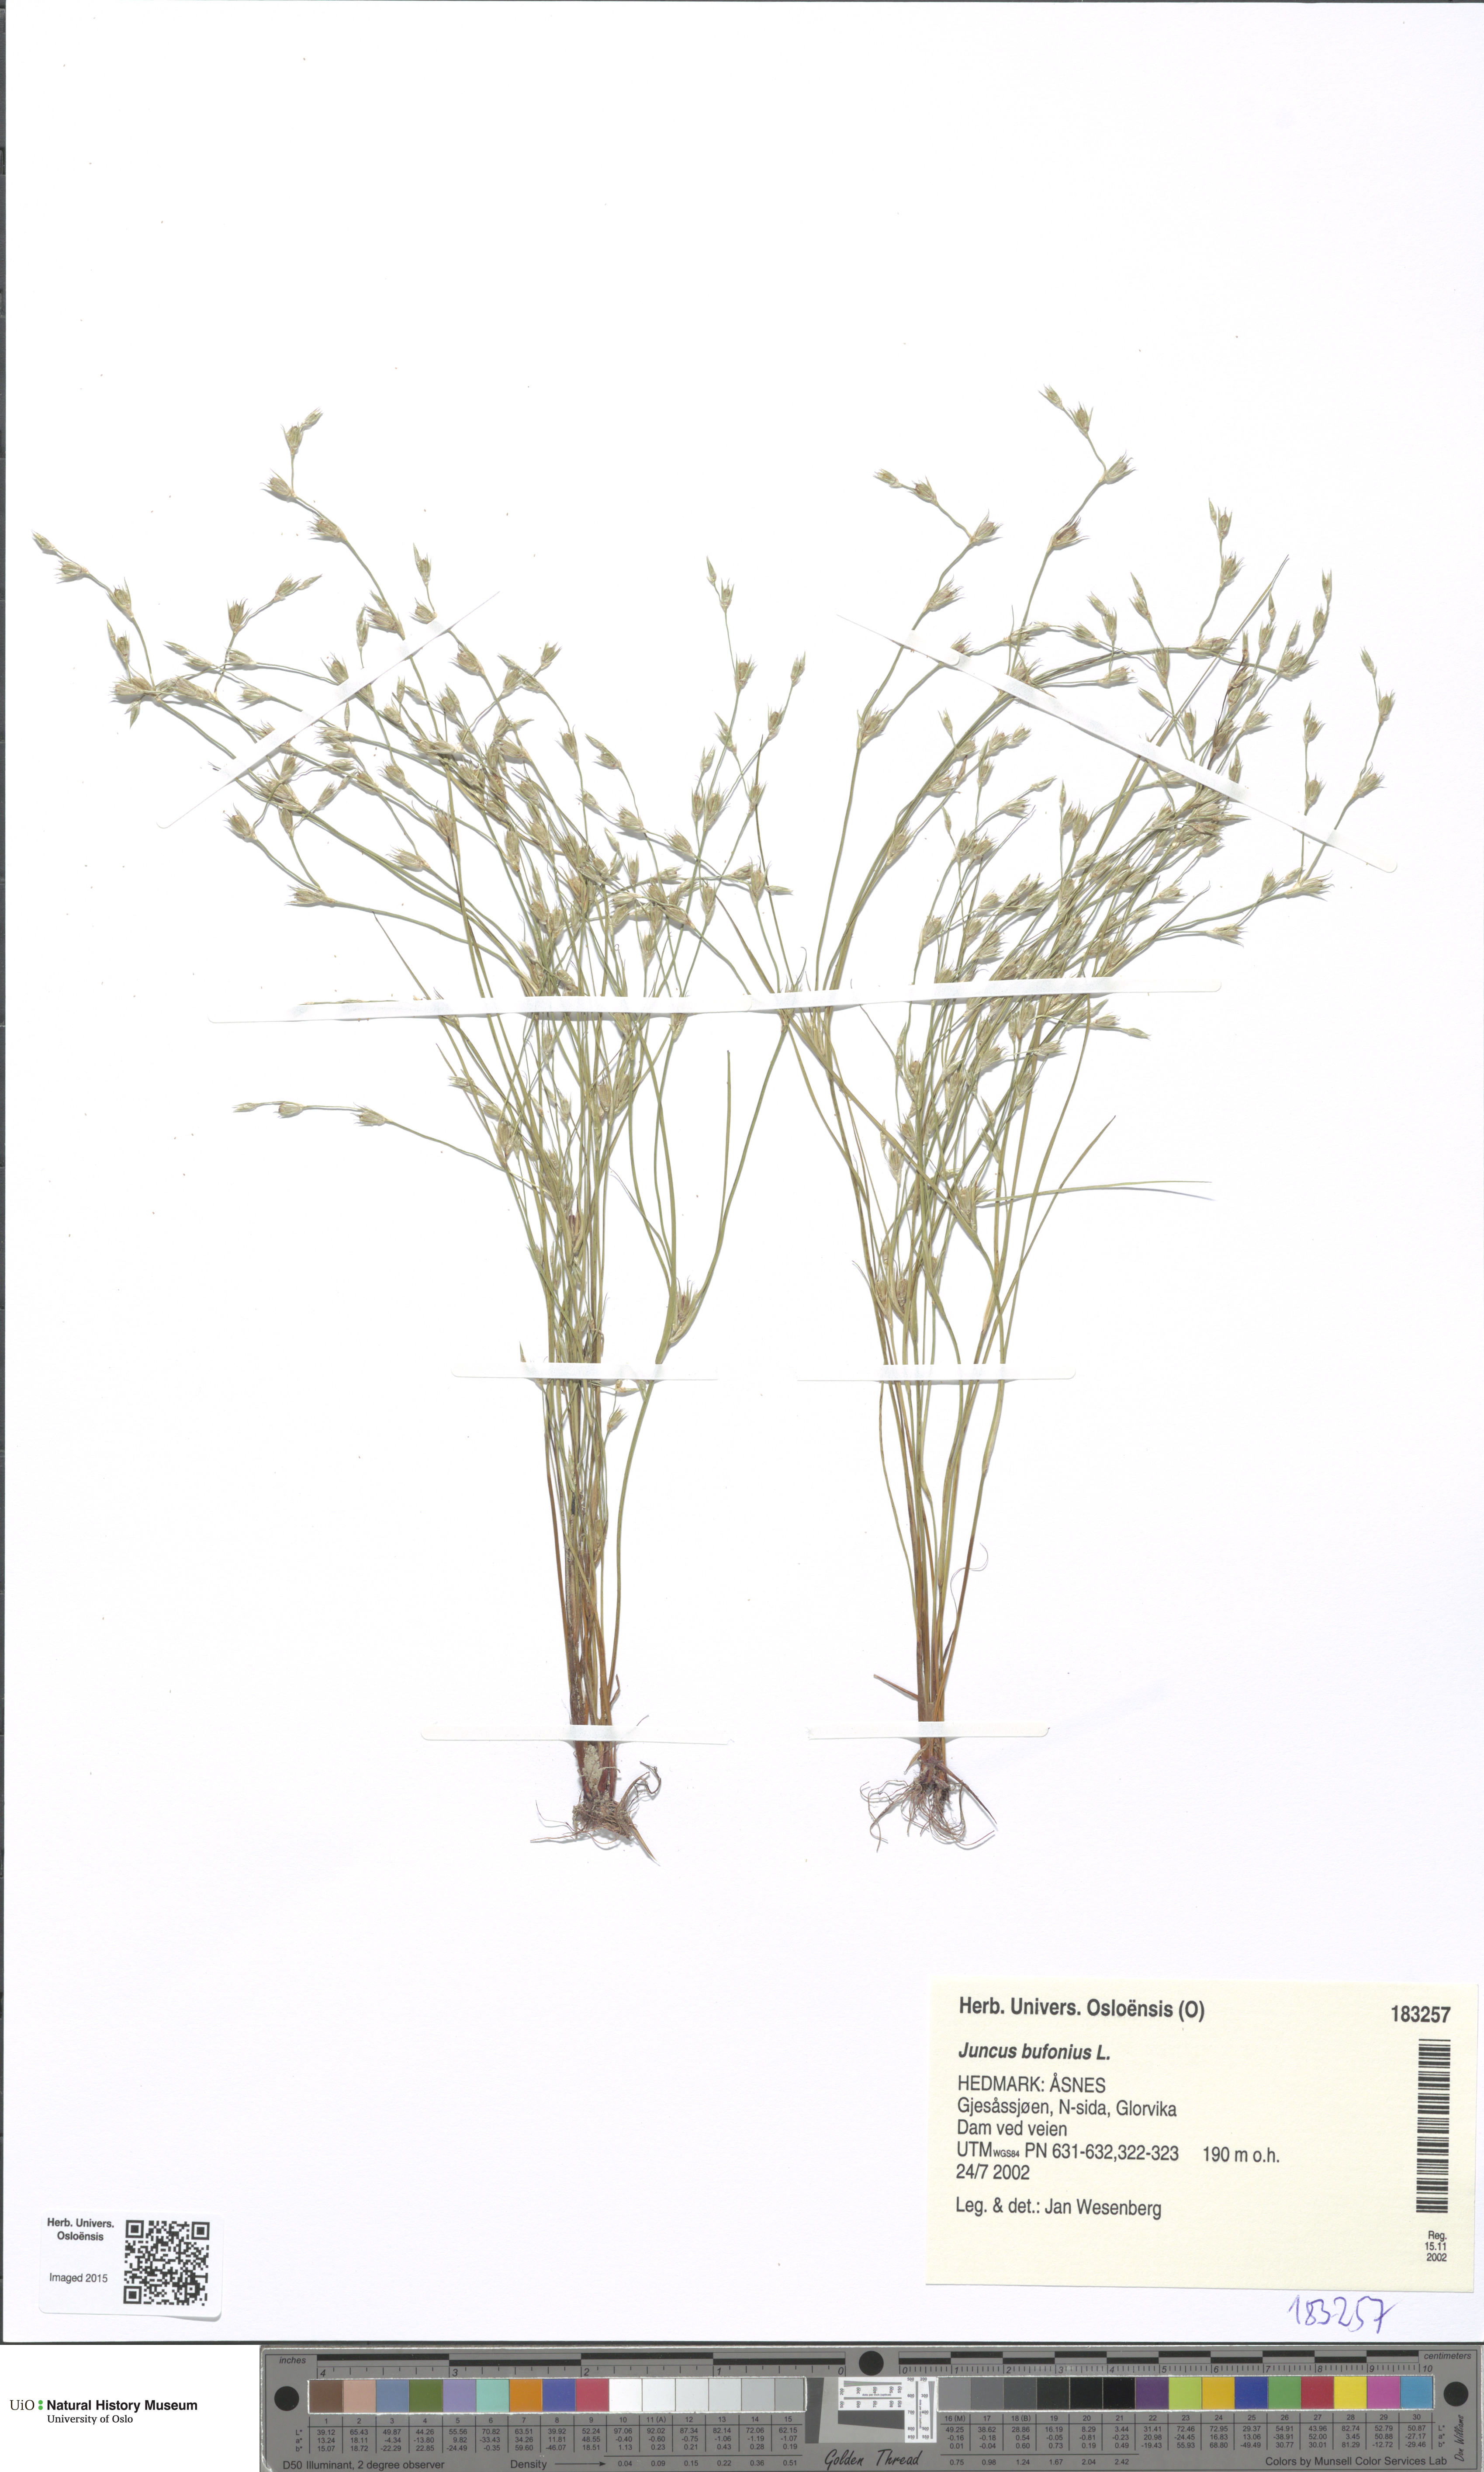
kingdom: Plantae
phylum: Tracheophyta
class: Liliopsida
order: Poales
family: Juncaceae
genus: Juncus
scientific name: Juncus bufonius
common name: Toad rush
